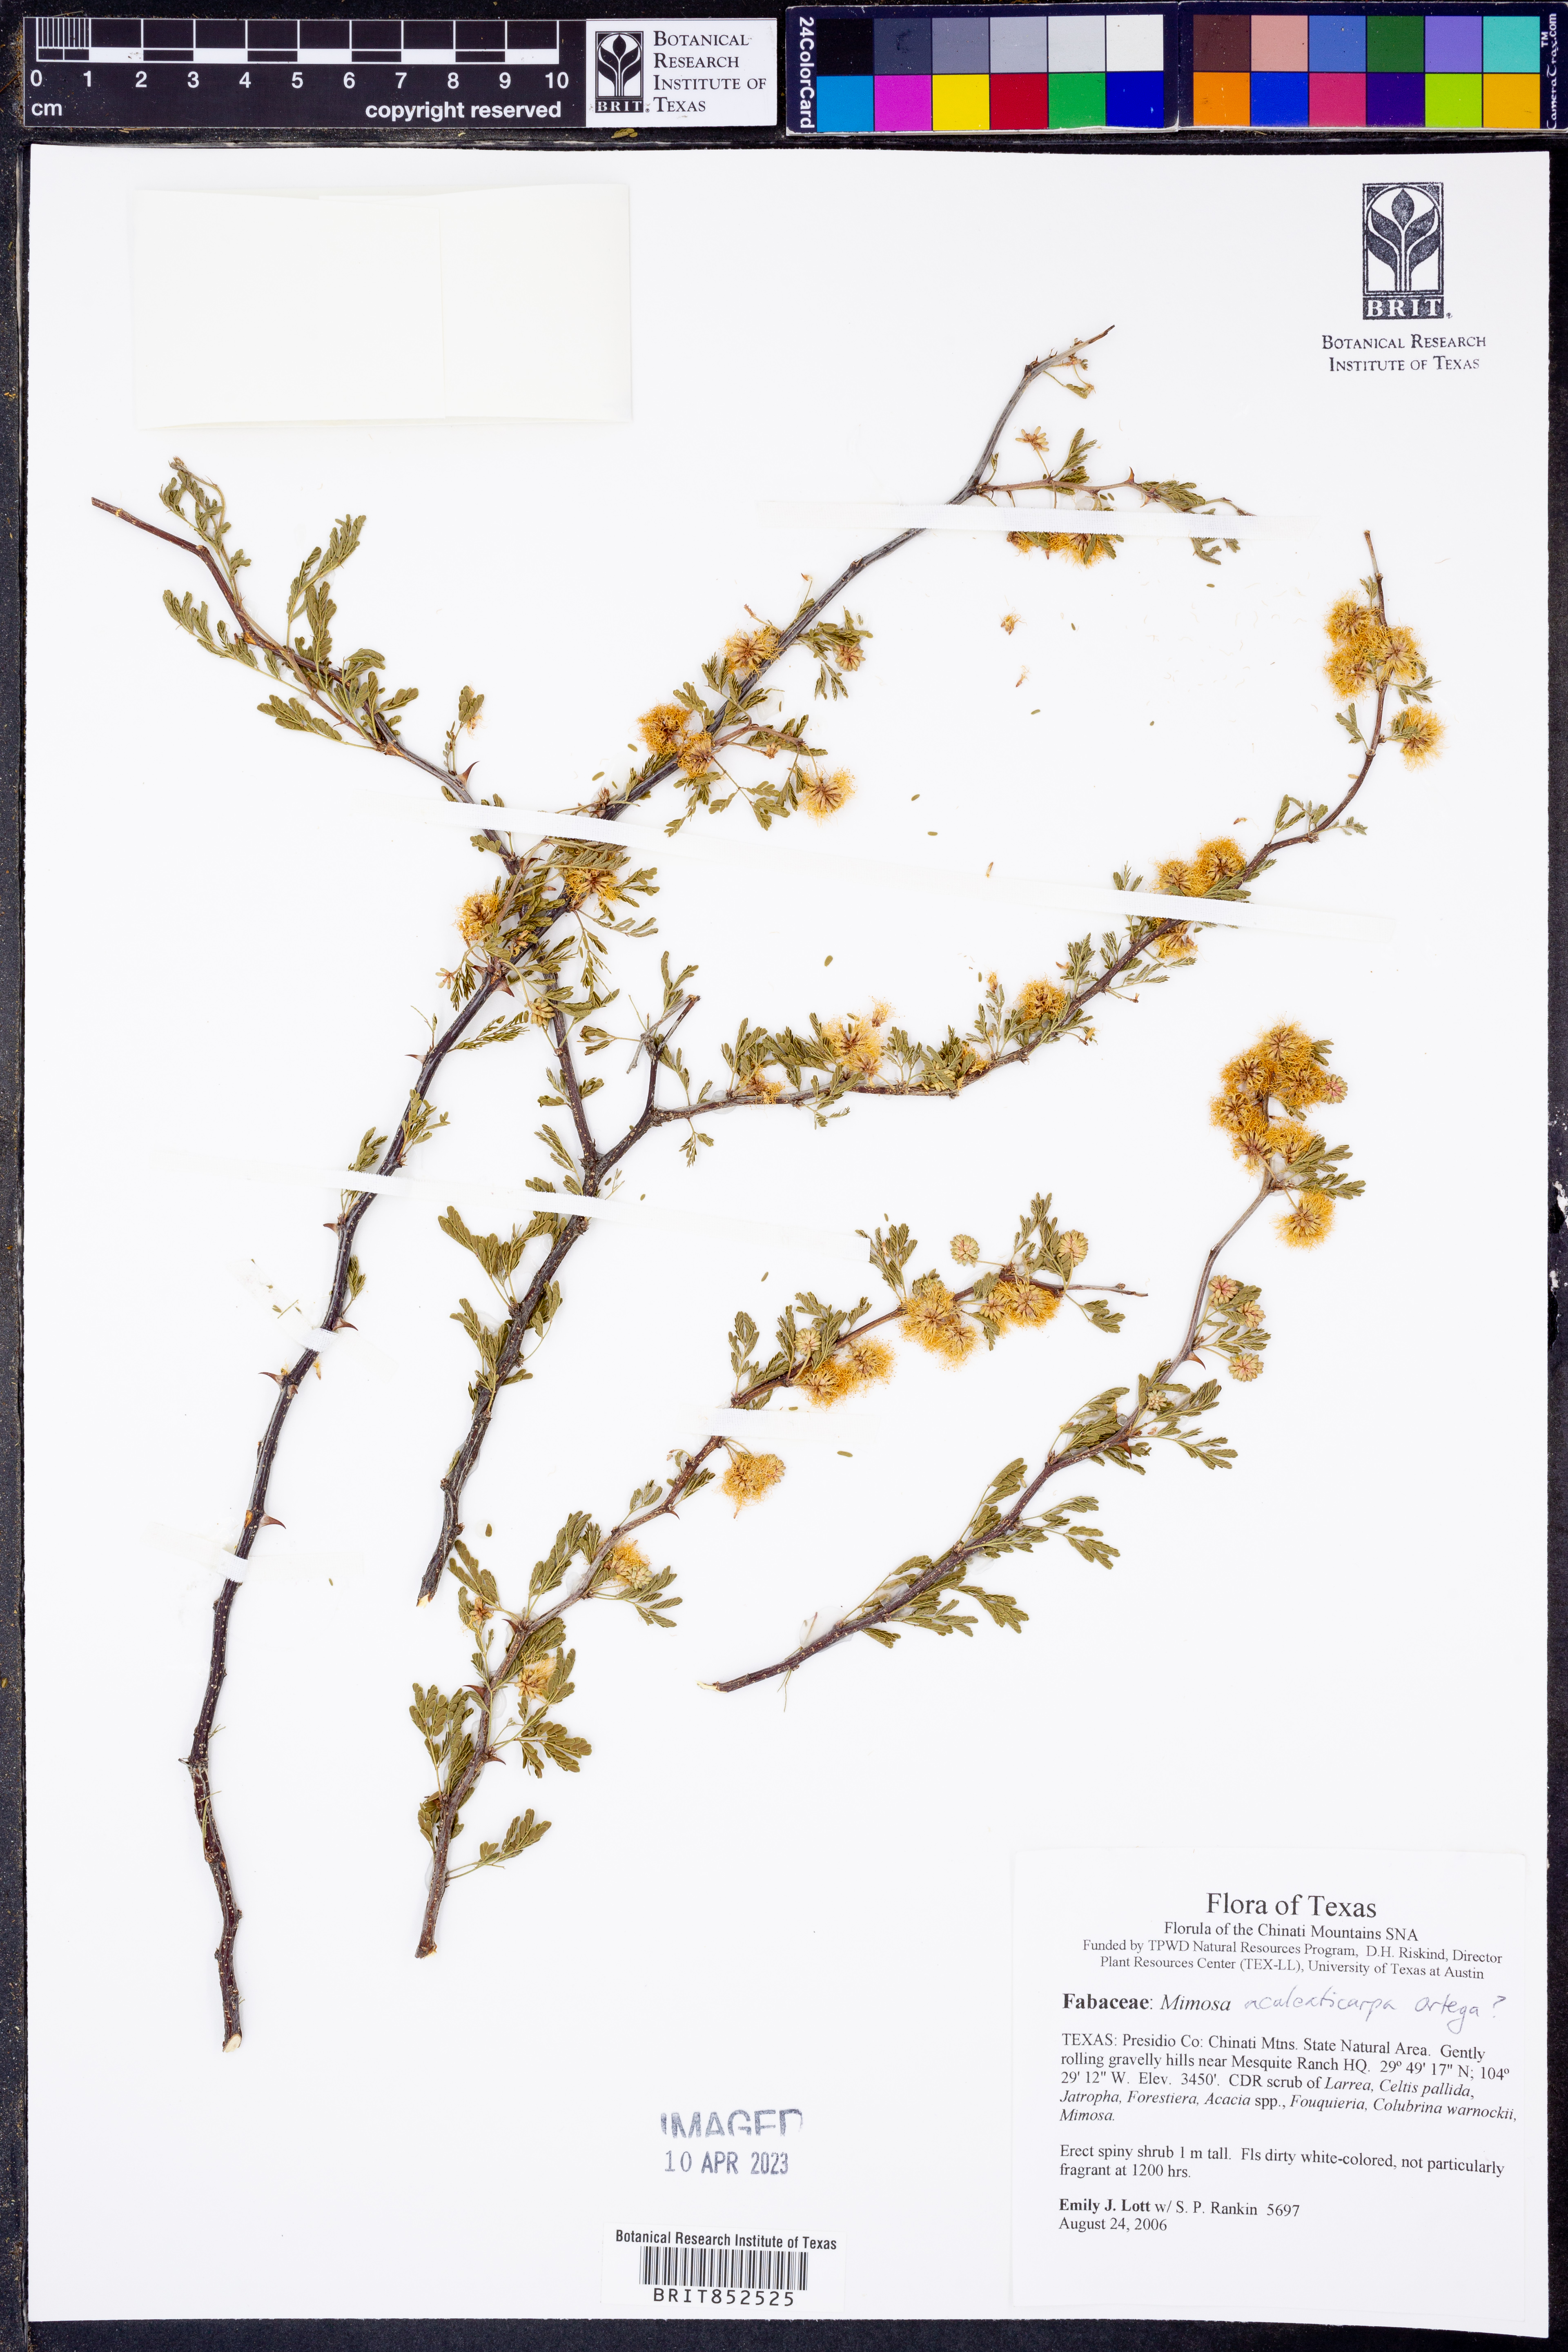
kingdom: Plantae
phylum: Tracheophyta
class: Magnoliopsida
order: Fabales
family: Fabaceae
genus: Mimosa
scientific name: Mimosa aculeaticarpa
